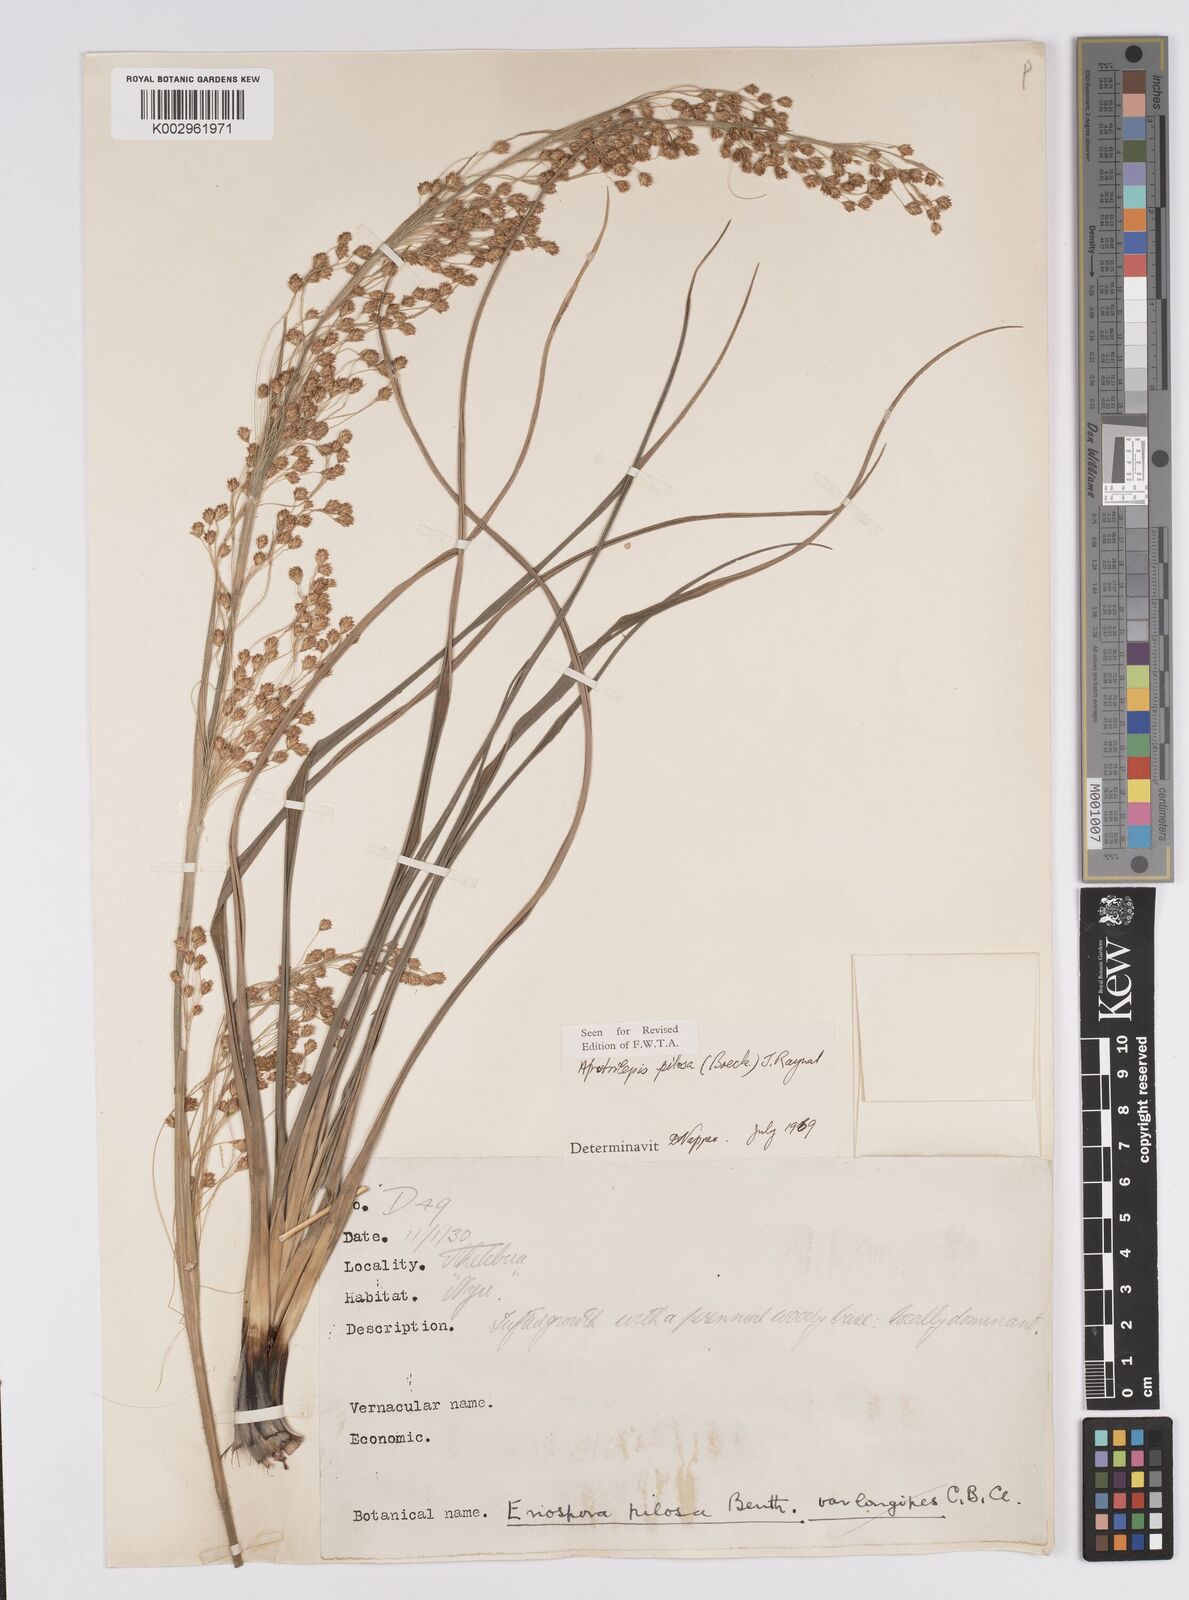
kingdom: Plantae
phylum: Tracheophyta
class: Liliopsida
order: Poales
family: Cyperaceae
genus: Afrotrilepis
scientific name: Afrotrilepis pilosa
